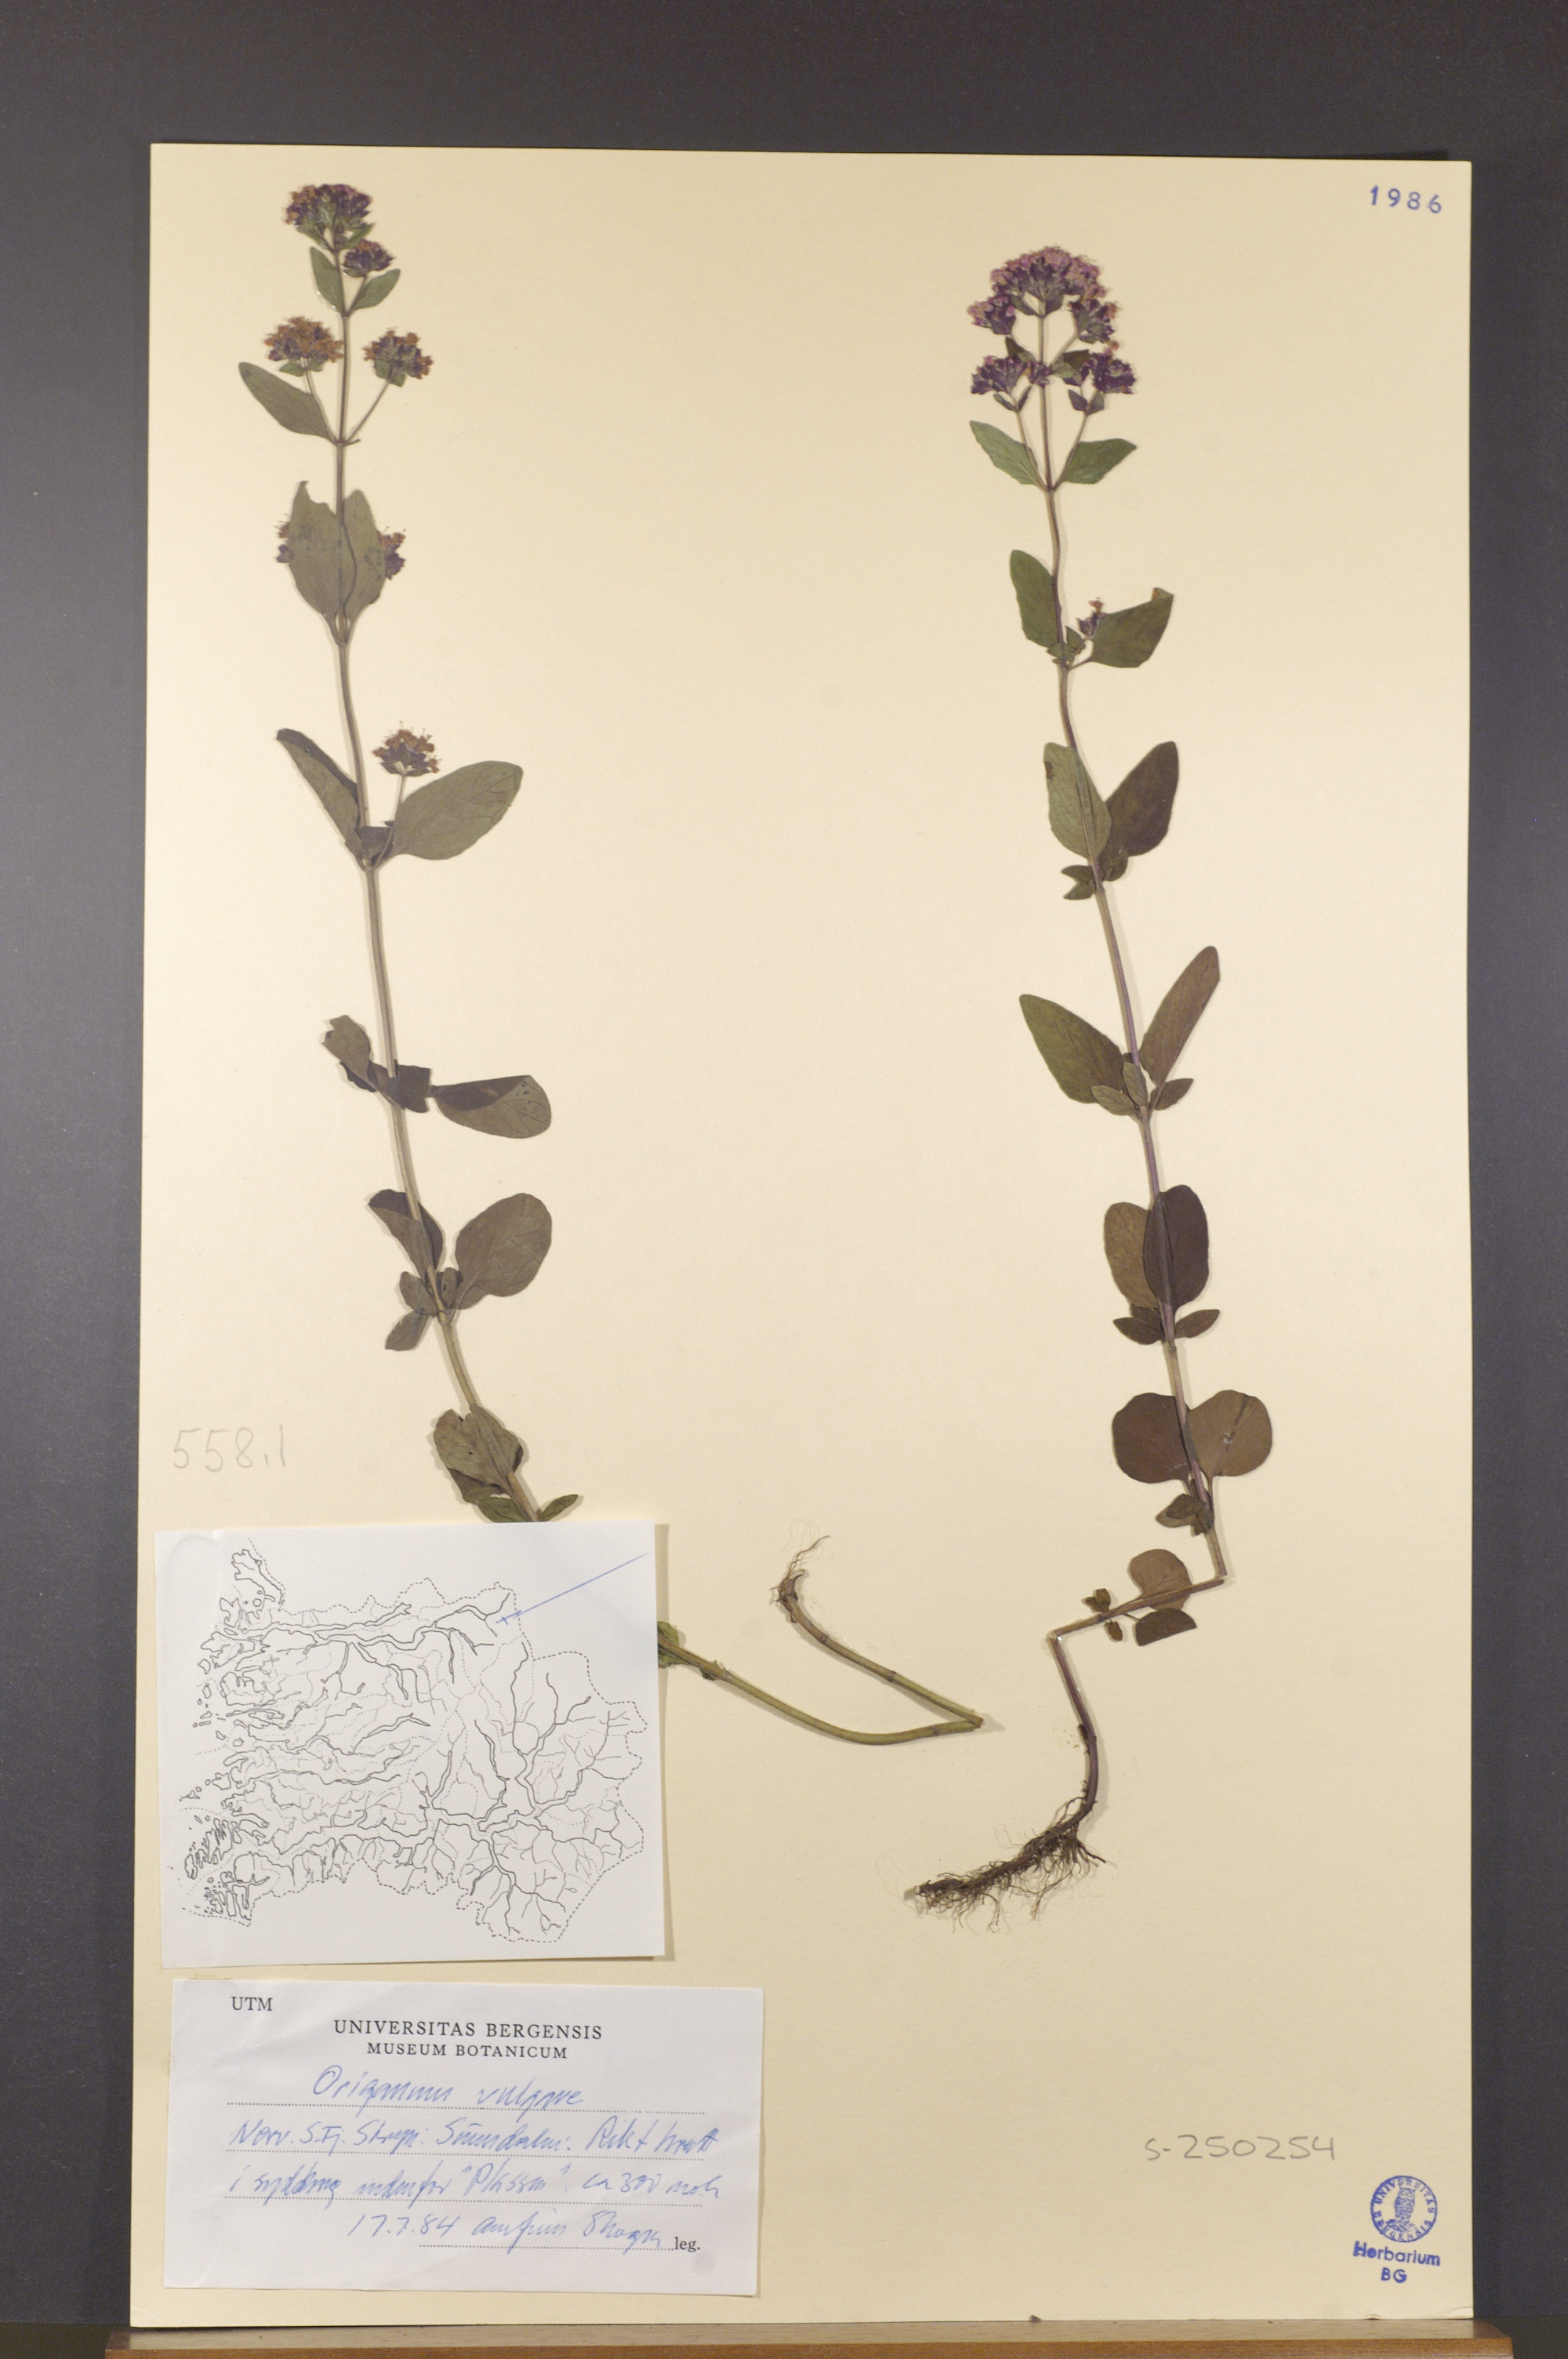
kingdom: Plantae
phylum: Tracheophyta
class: Magnoliopsida
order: Lamiales
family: Lamiaceae
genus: Origanum
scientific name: Origanum vulgare
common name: Wild marjoram
